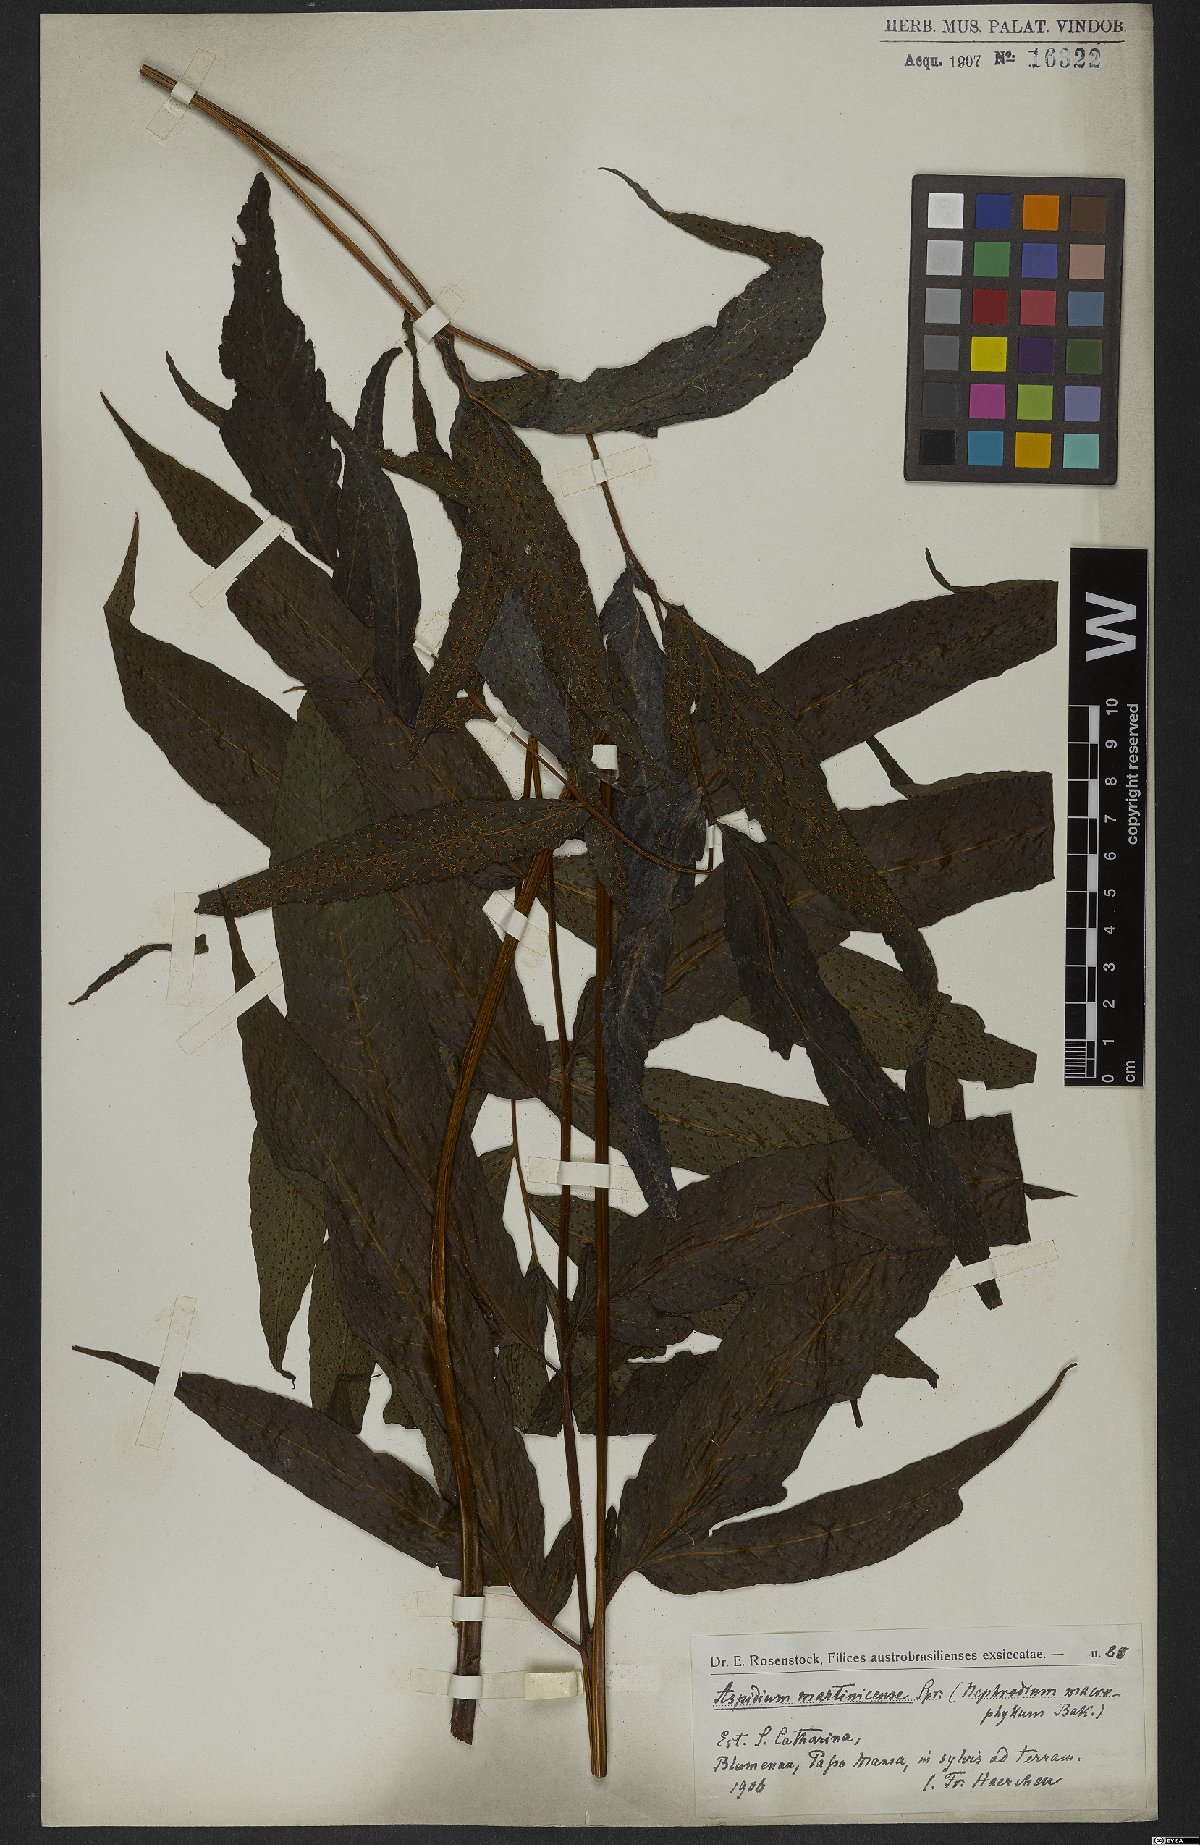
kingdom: Plantae
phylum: Tracheophyta
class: Polypodiopsida
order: Polypodiales
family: Tectariaceae
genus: Tectaria
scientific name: Tectaria incisa
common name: Incised halberd fern
